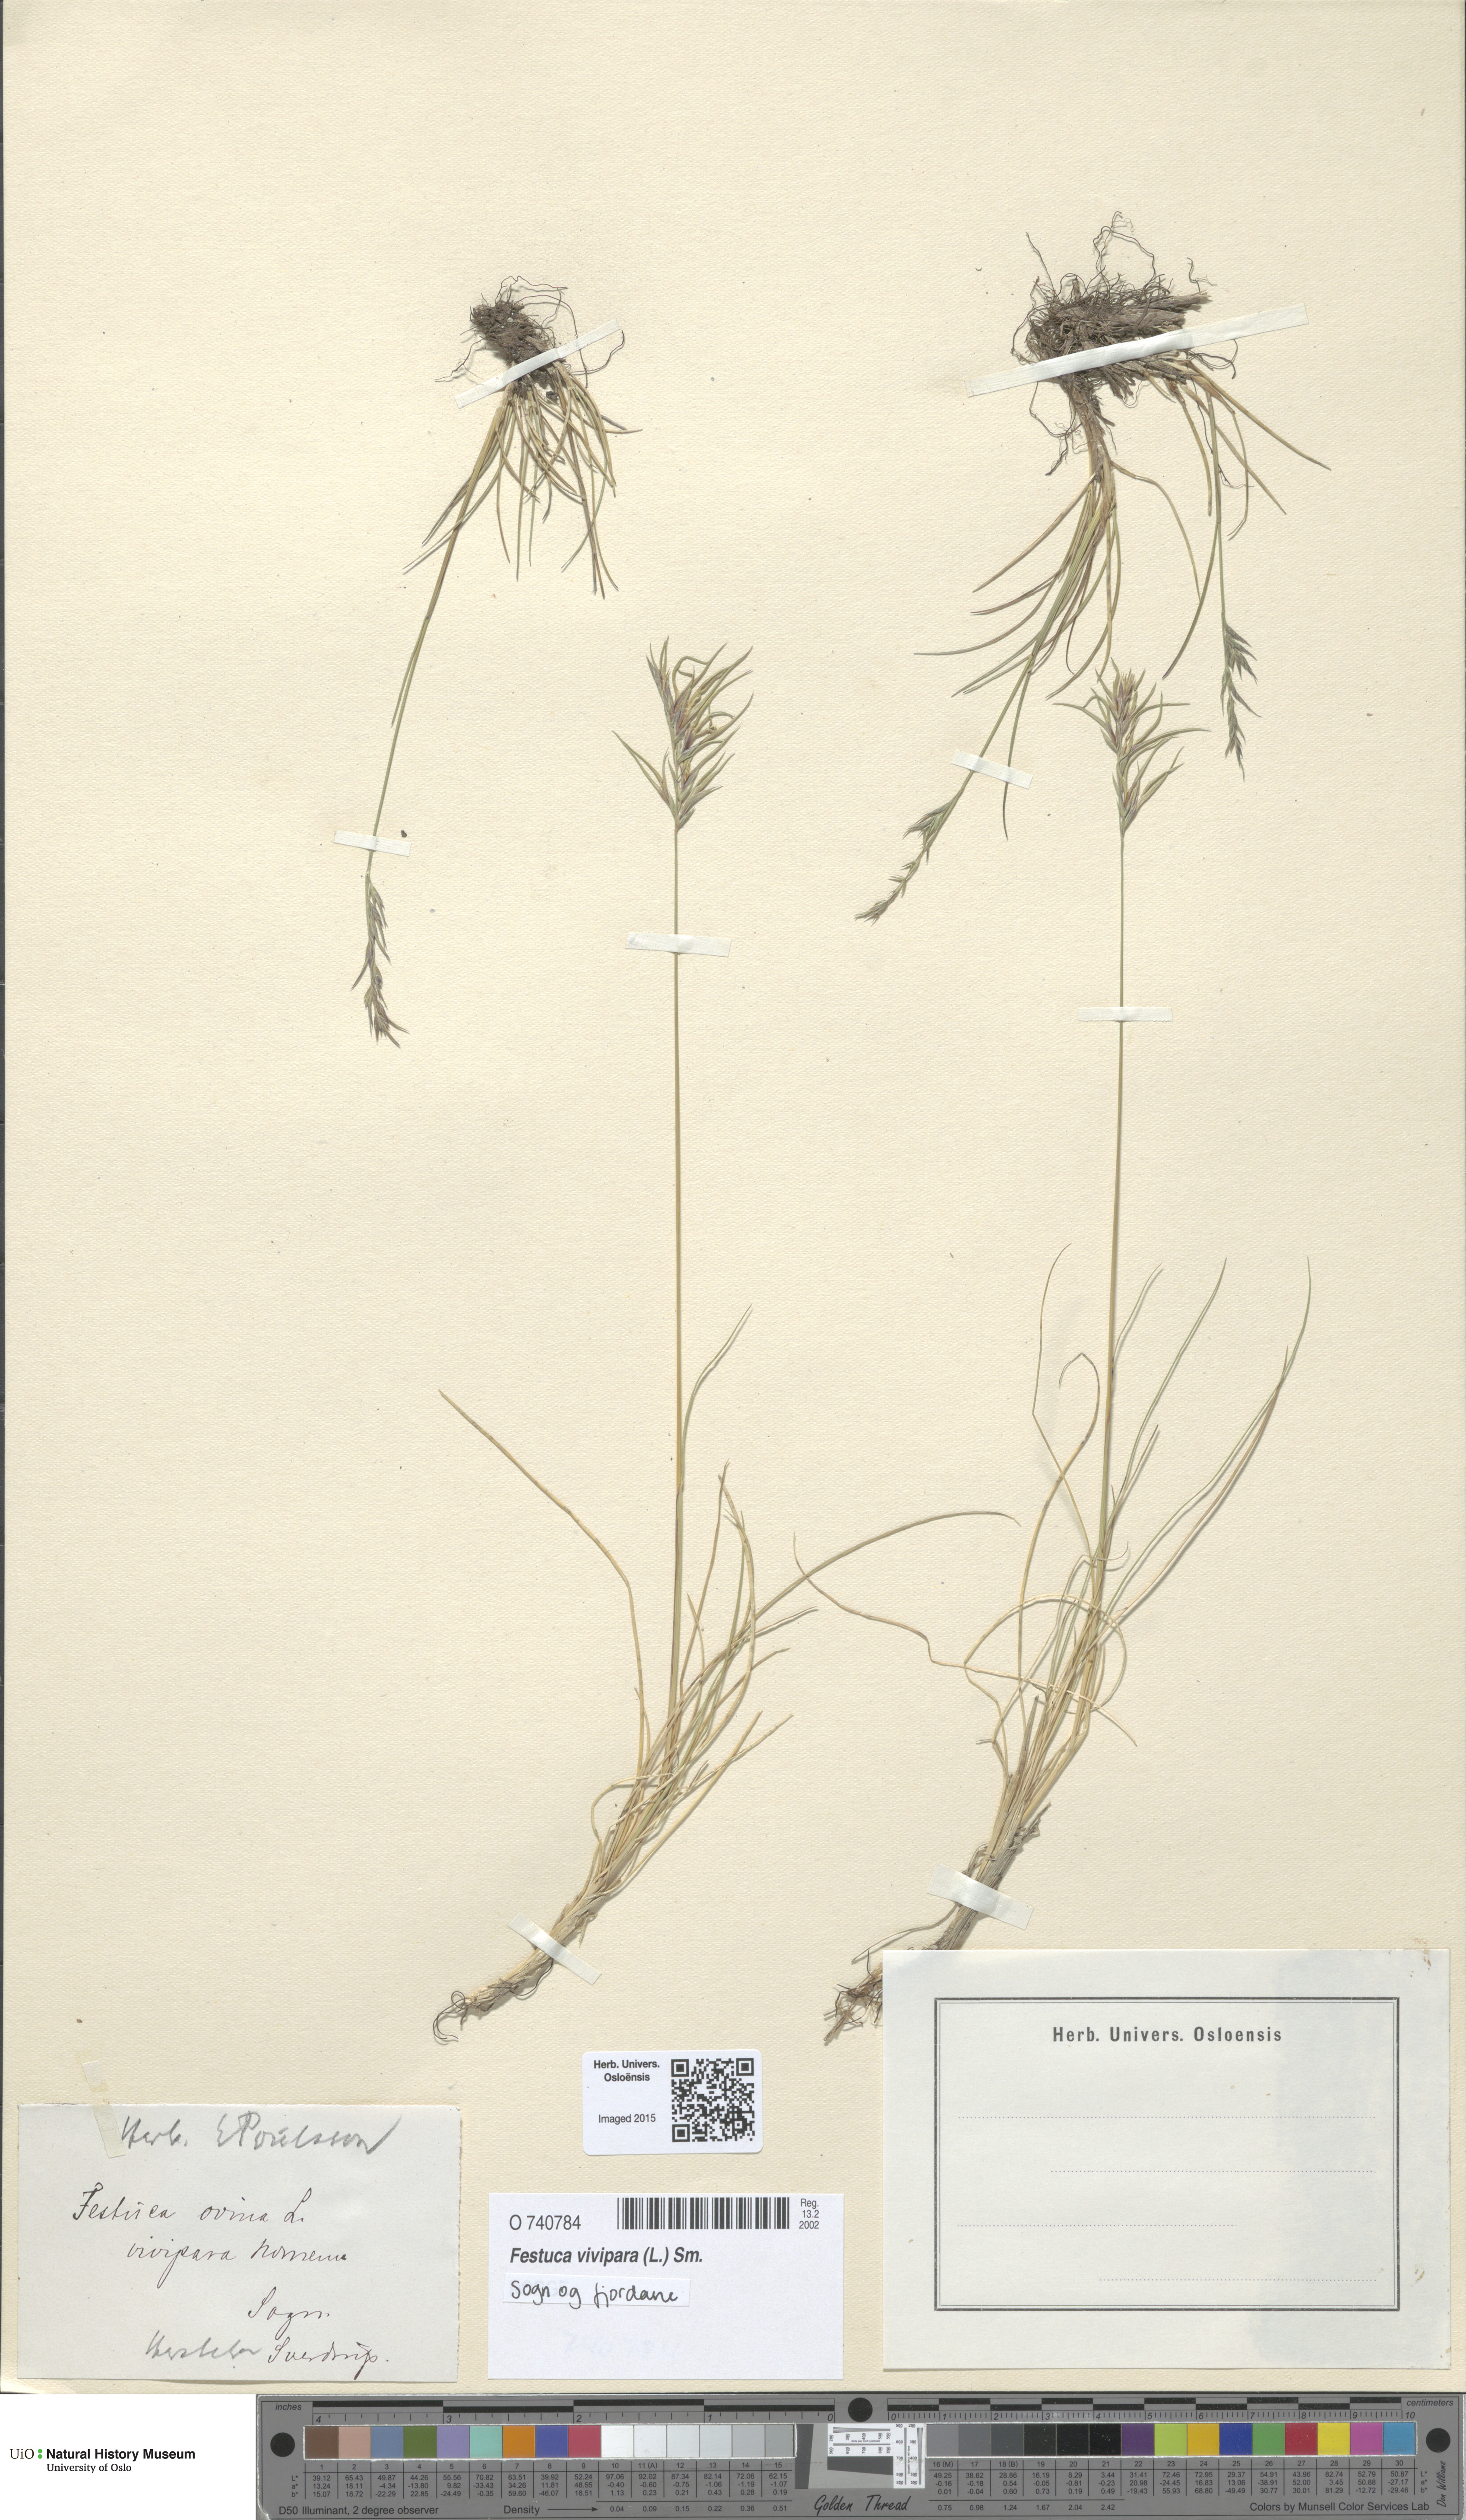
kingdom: Plantae
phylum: Tracheophyta
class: Liliopsida
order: Poales
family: Poaceae
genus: Festuca
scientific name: Festuca vivipara
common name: Viviparous sheep's-fescue
